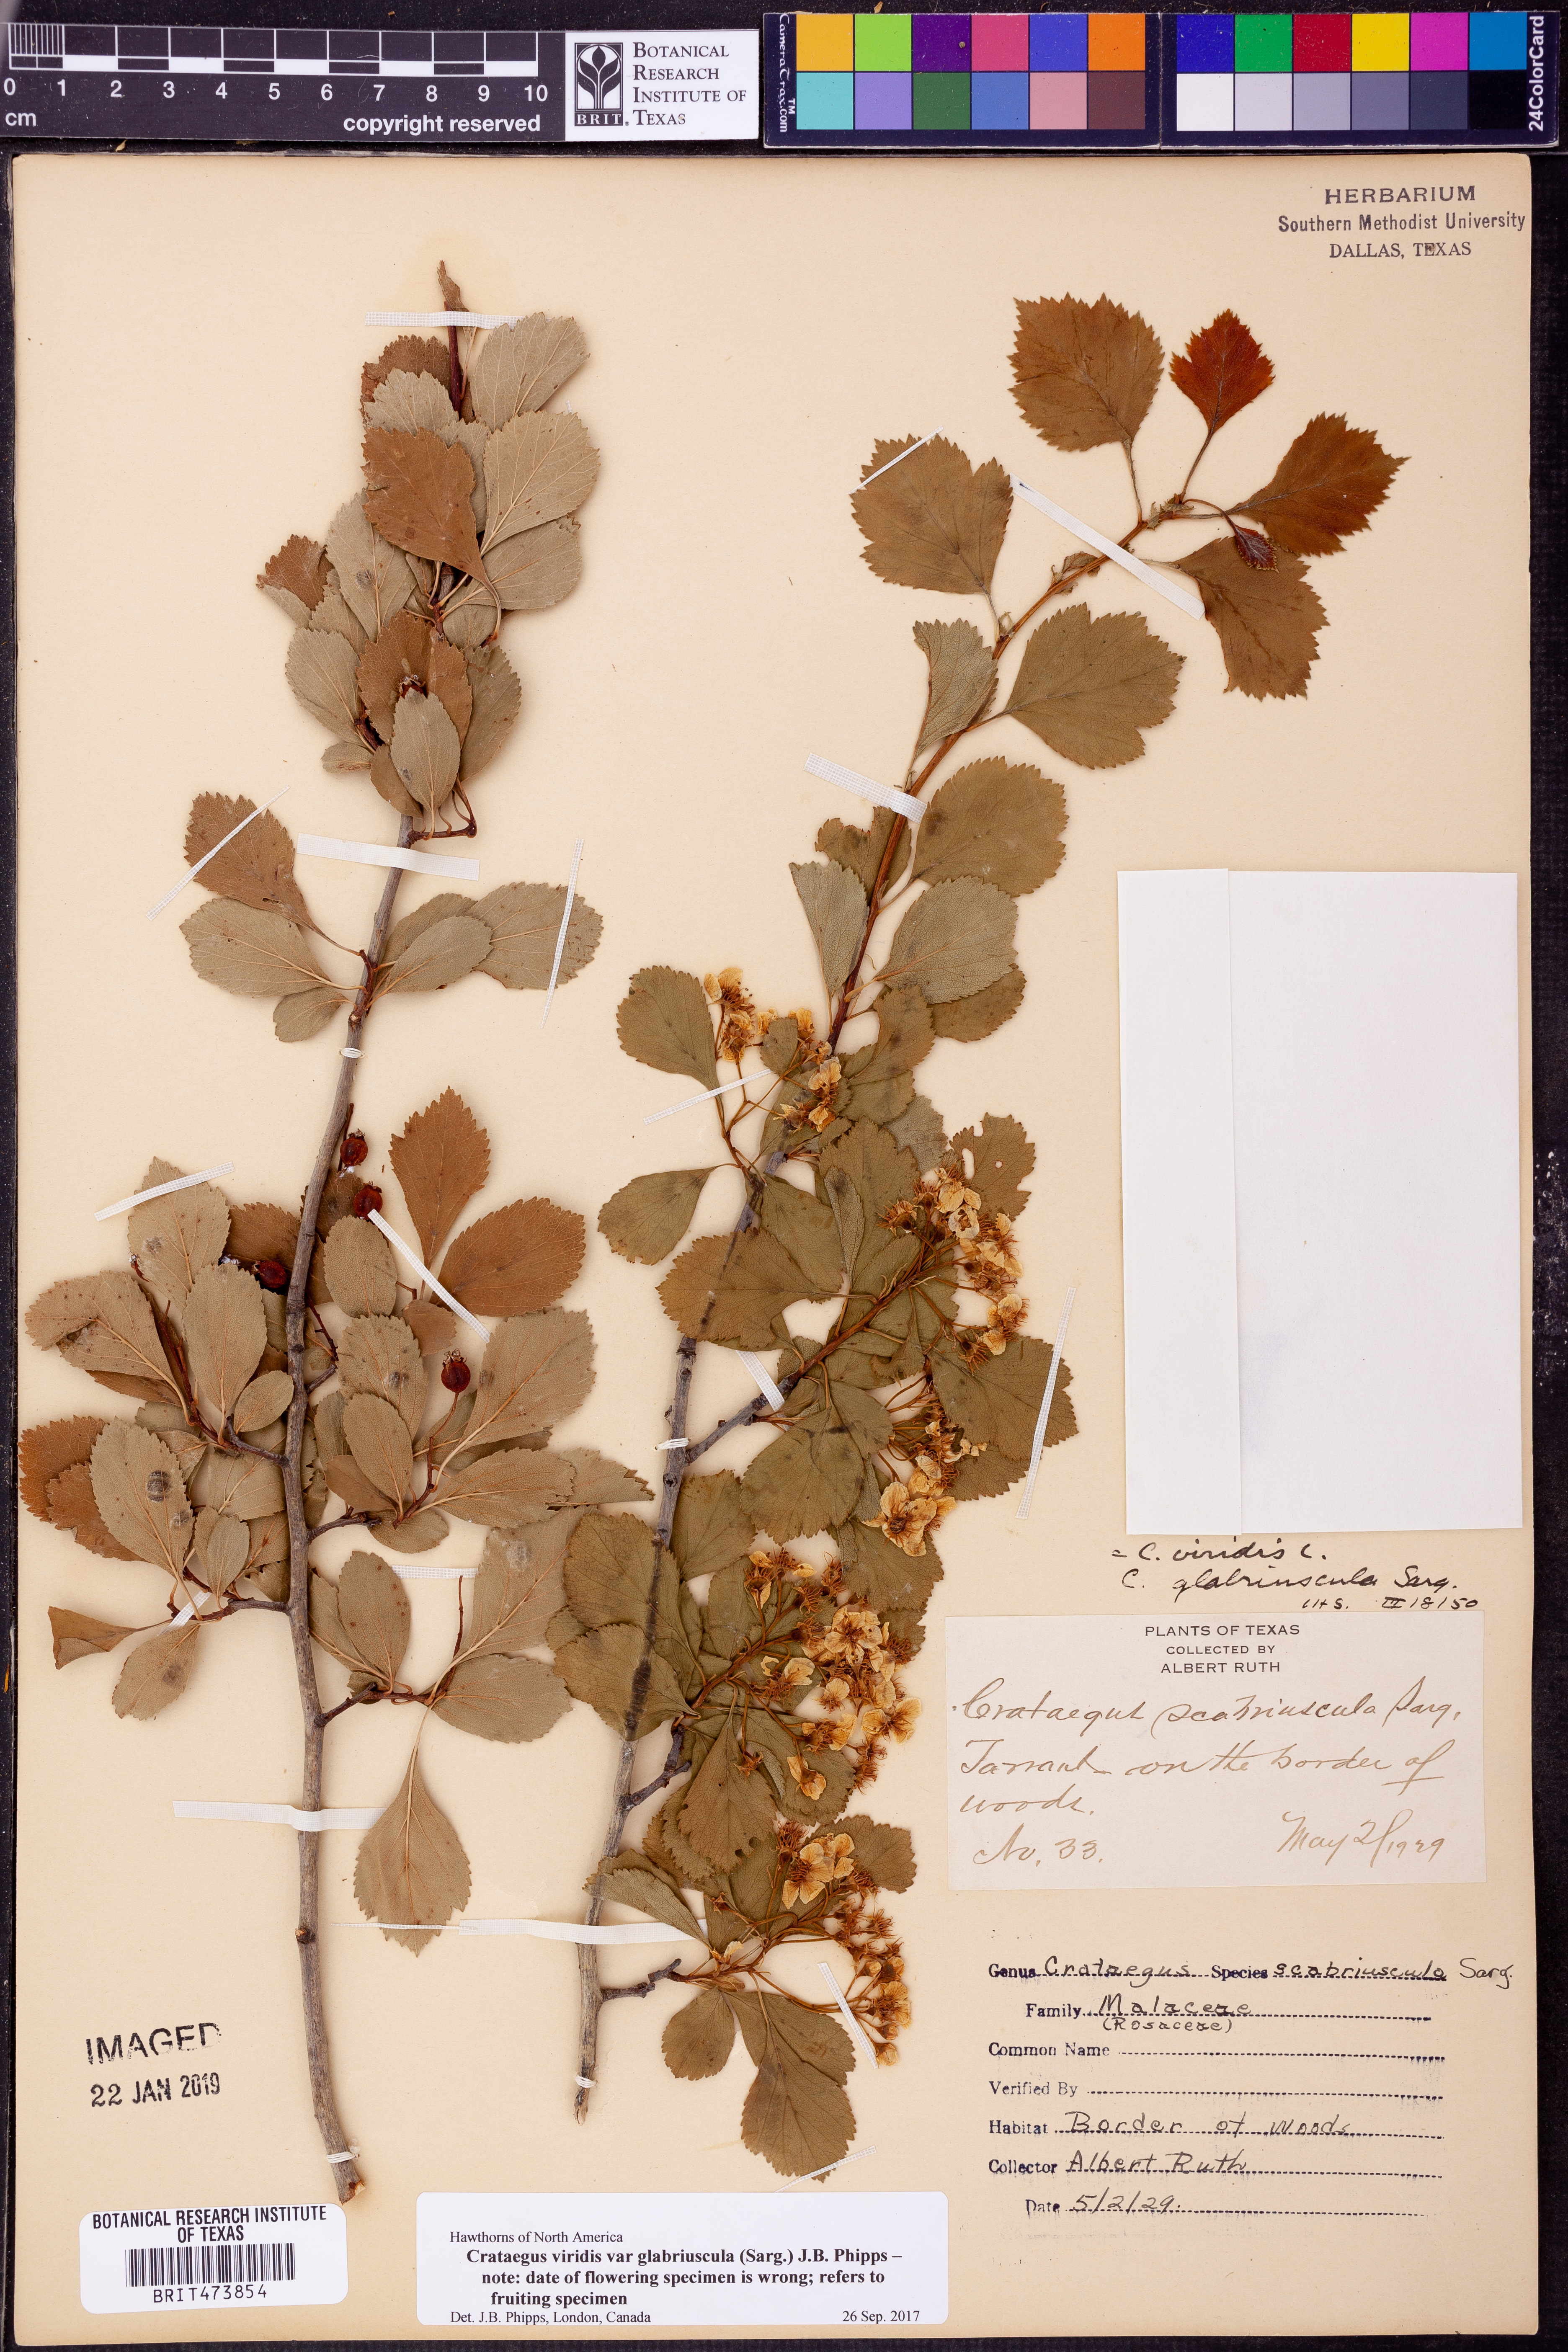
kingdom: Plantae
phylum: Tracheophyta
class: Magnoliopsida
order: Rosales
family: Rosaceae
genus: Crataegus
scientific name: Crataegus viridis
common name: Southernthorn
